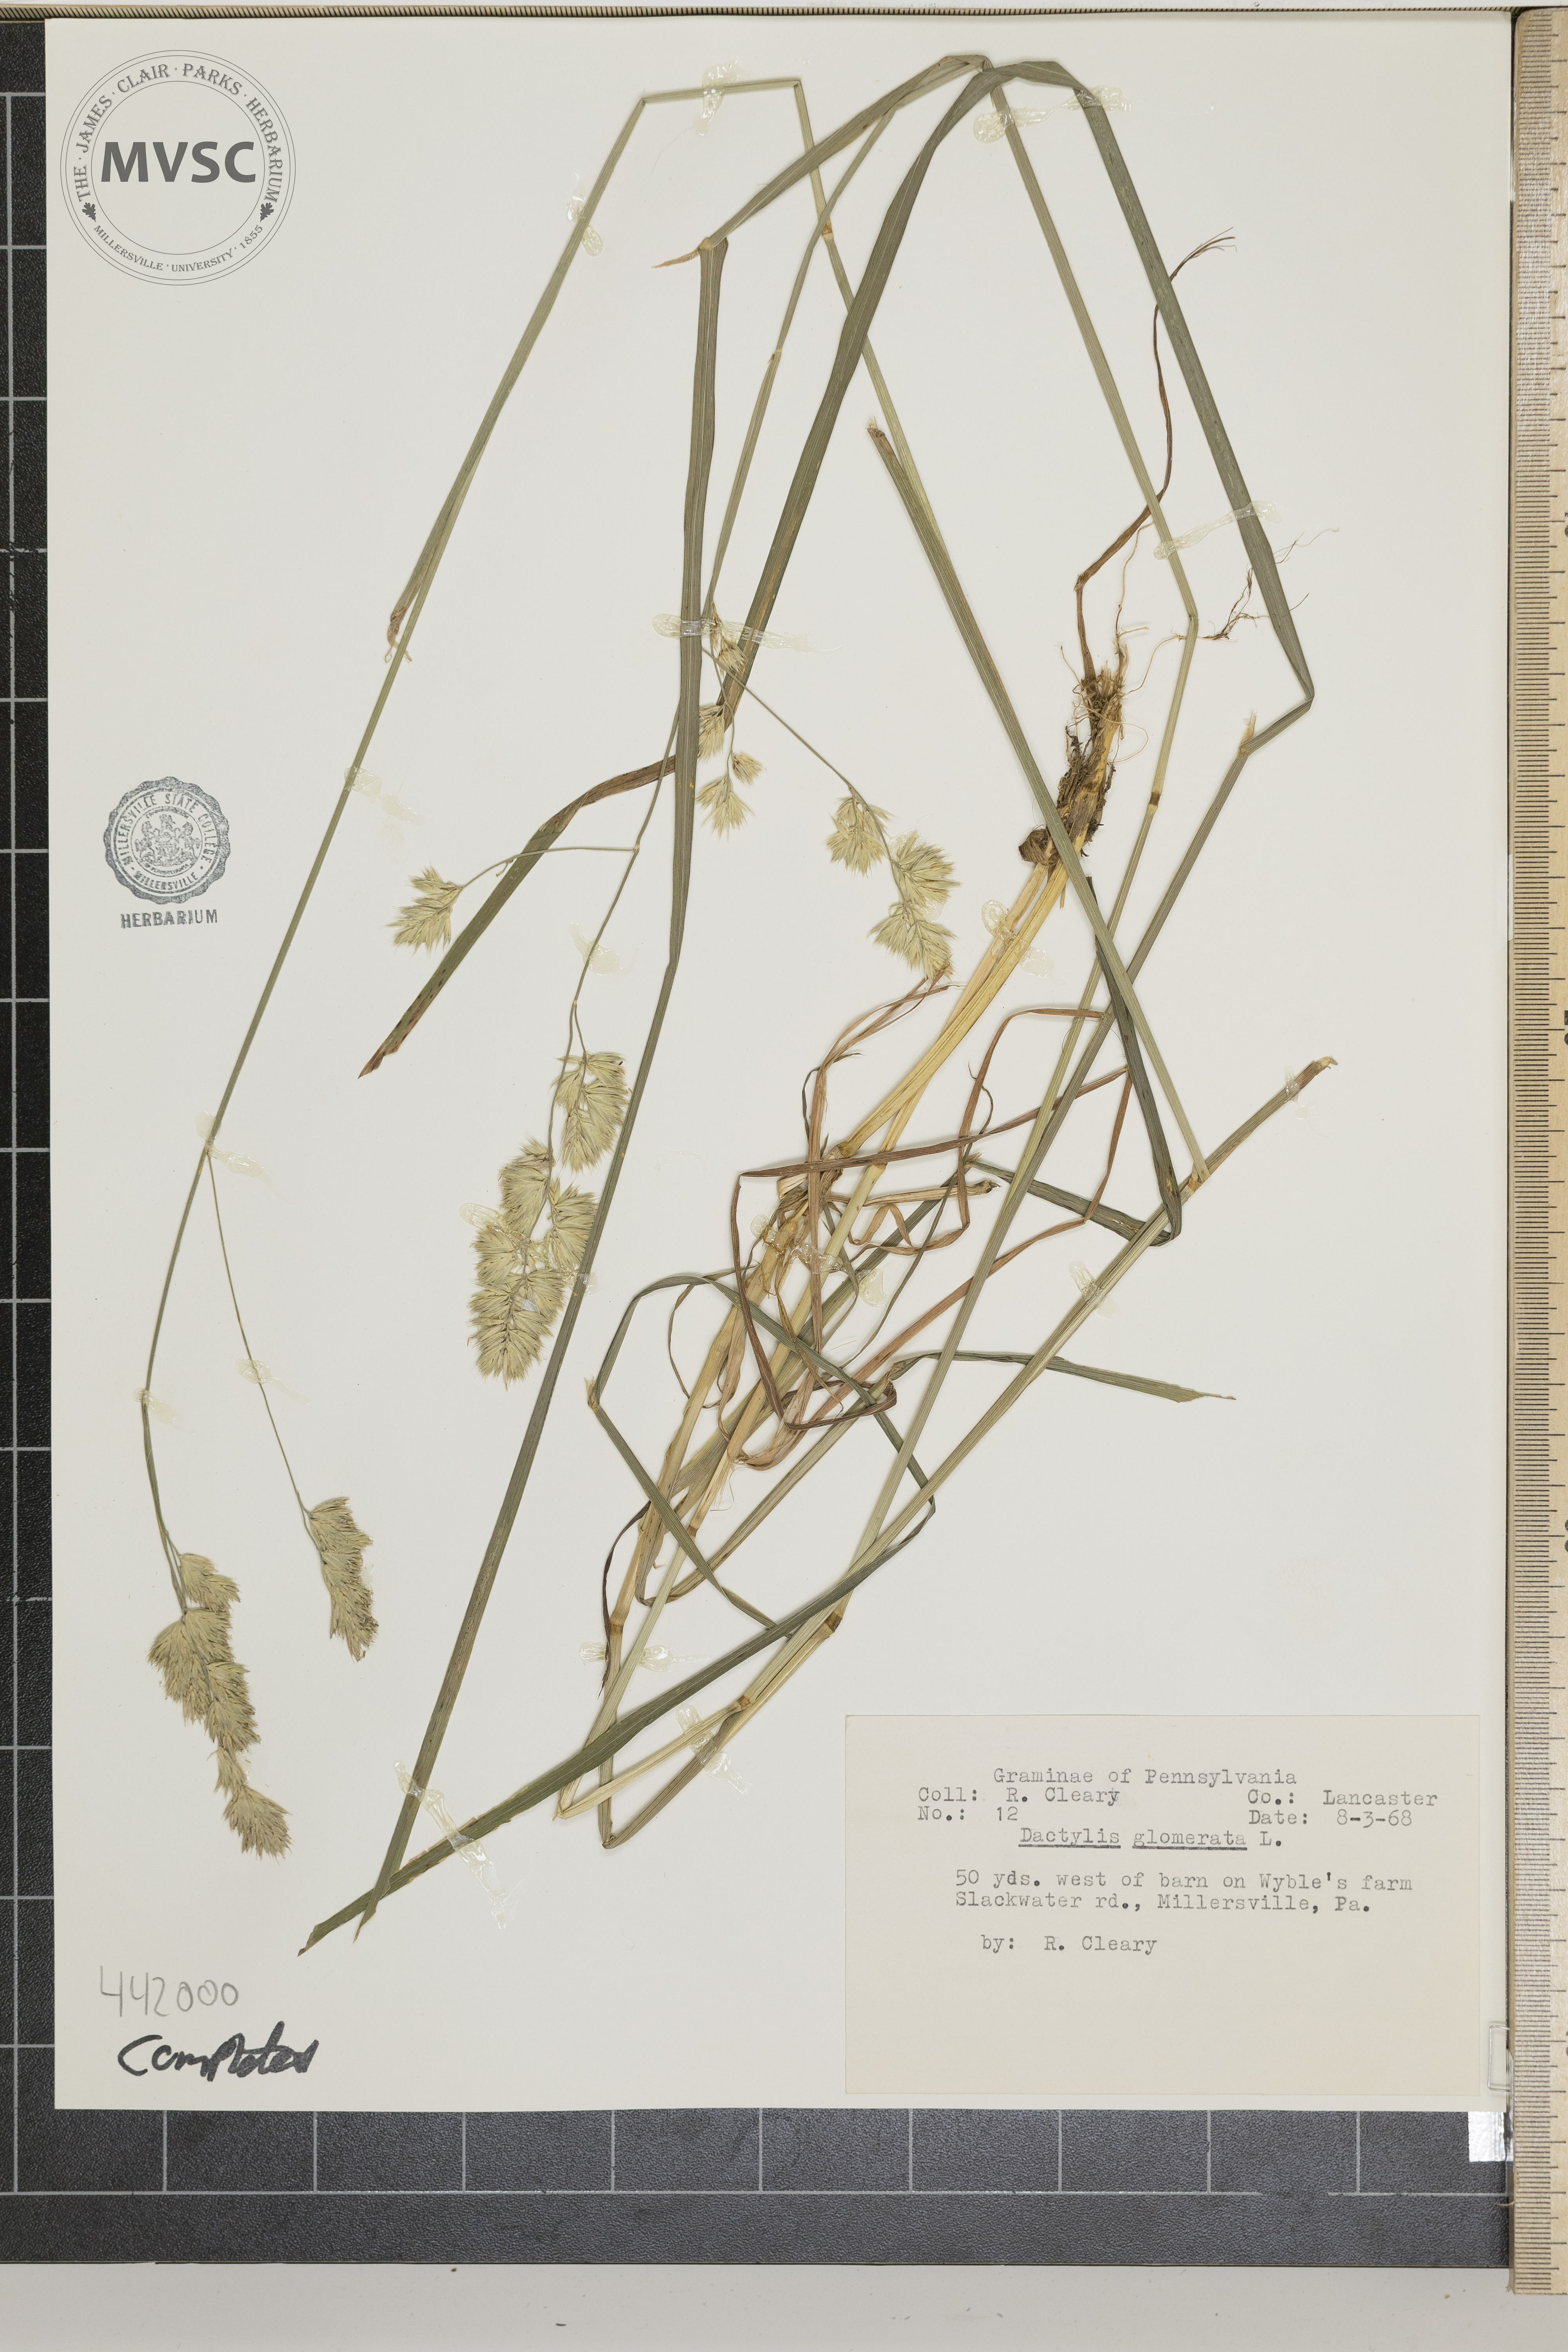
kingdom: Plantae
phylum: Tracheophyta
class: Liliopsida
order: Poales
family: Poaceae
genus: Dactylis
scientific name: Dactylis glomerata
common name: Orchardgrass
